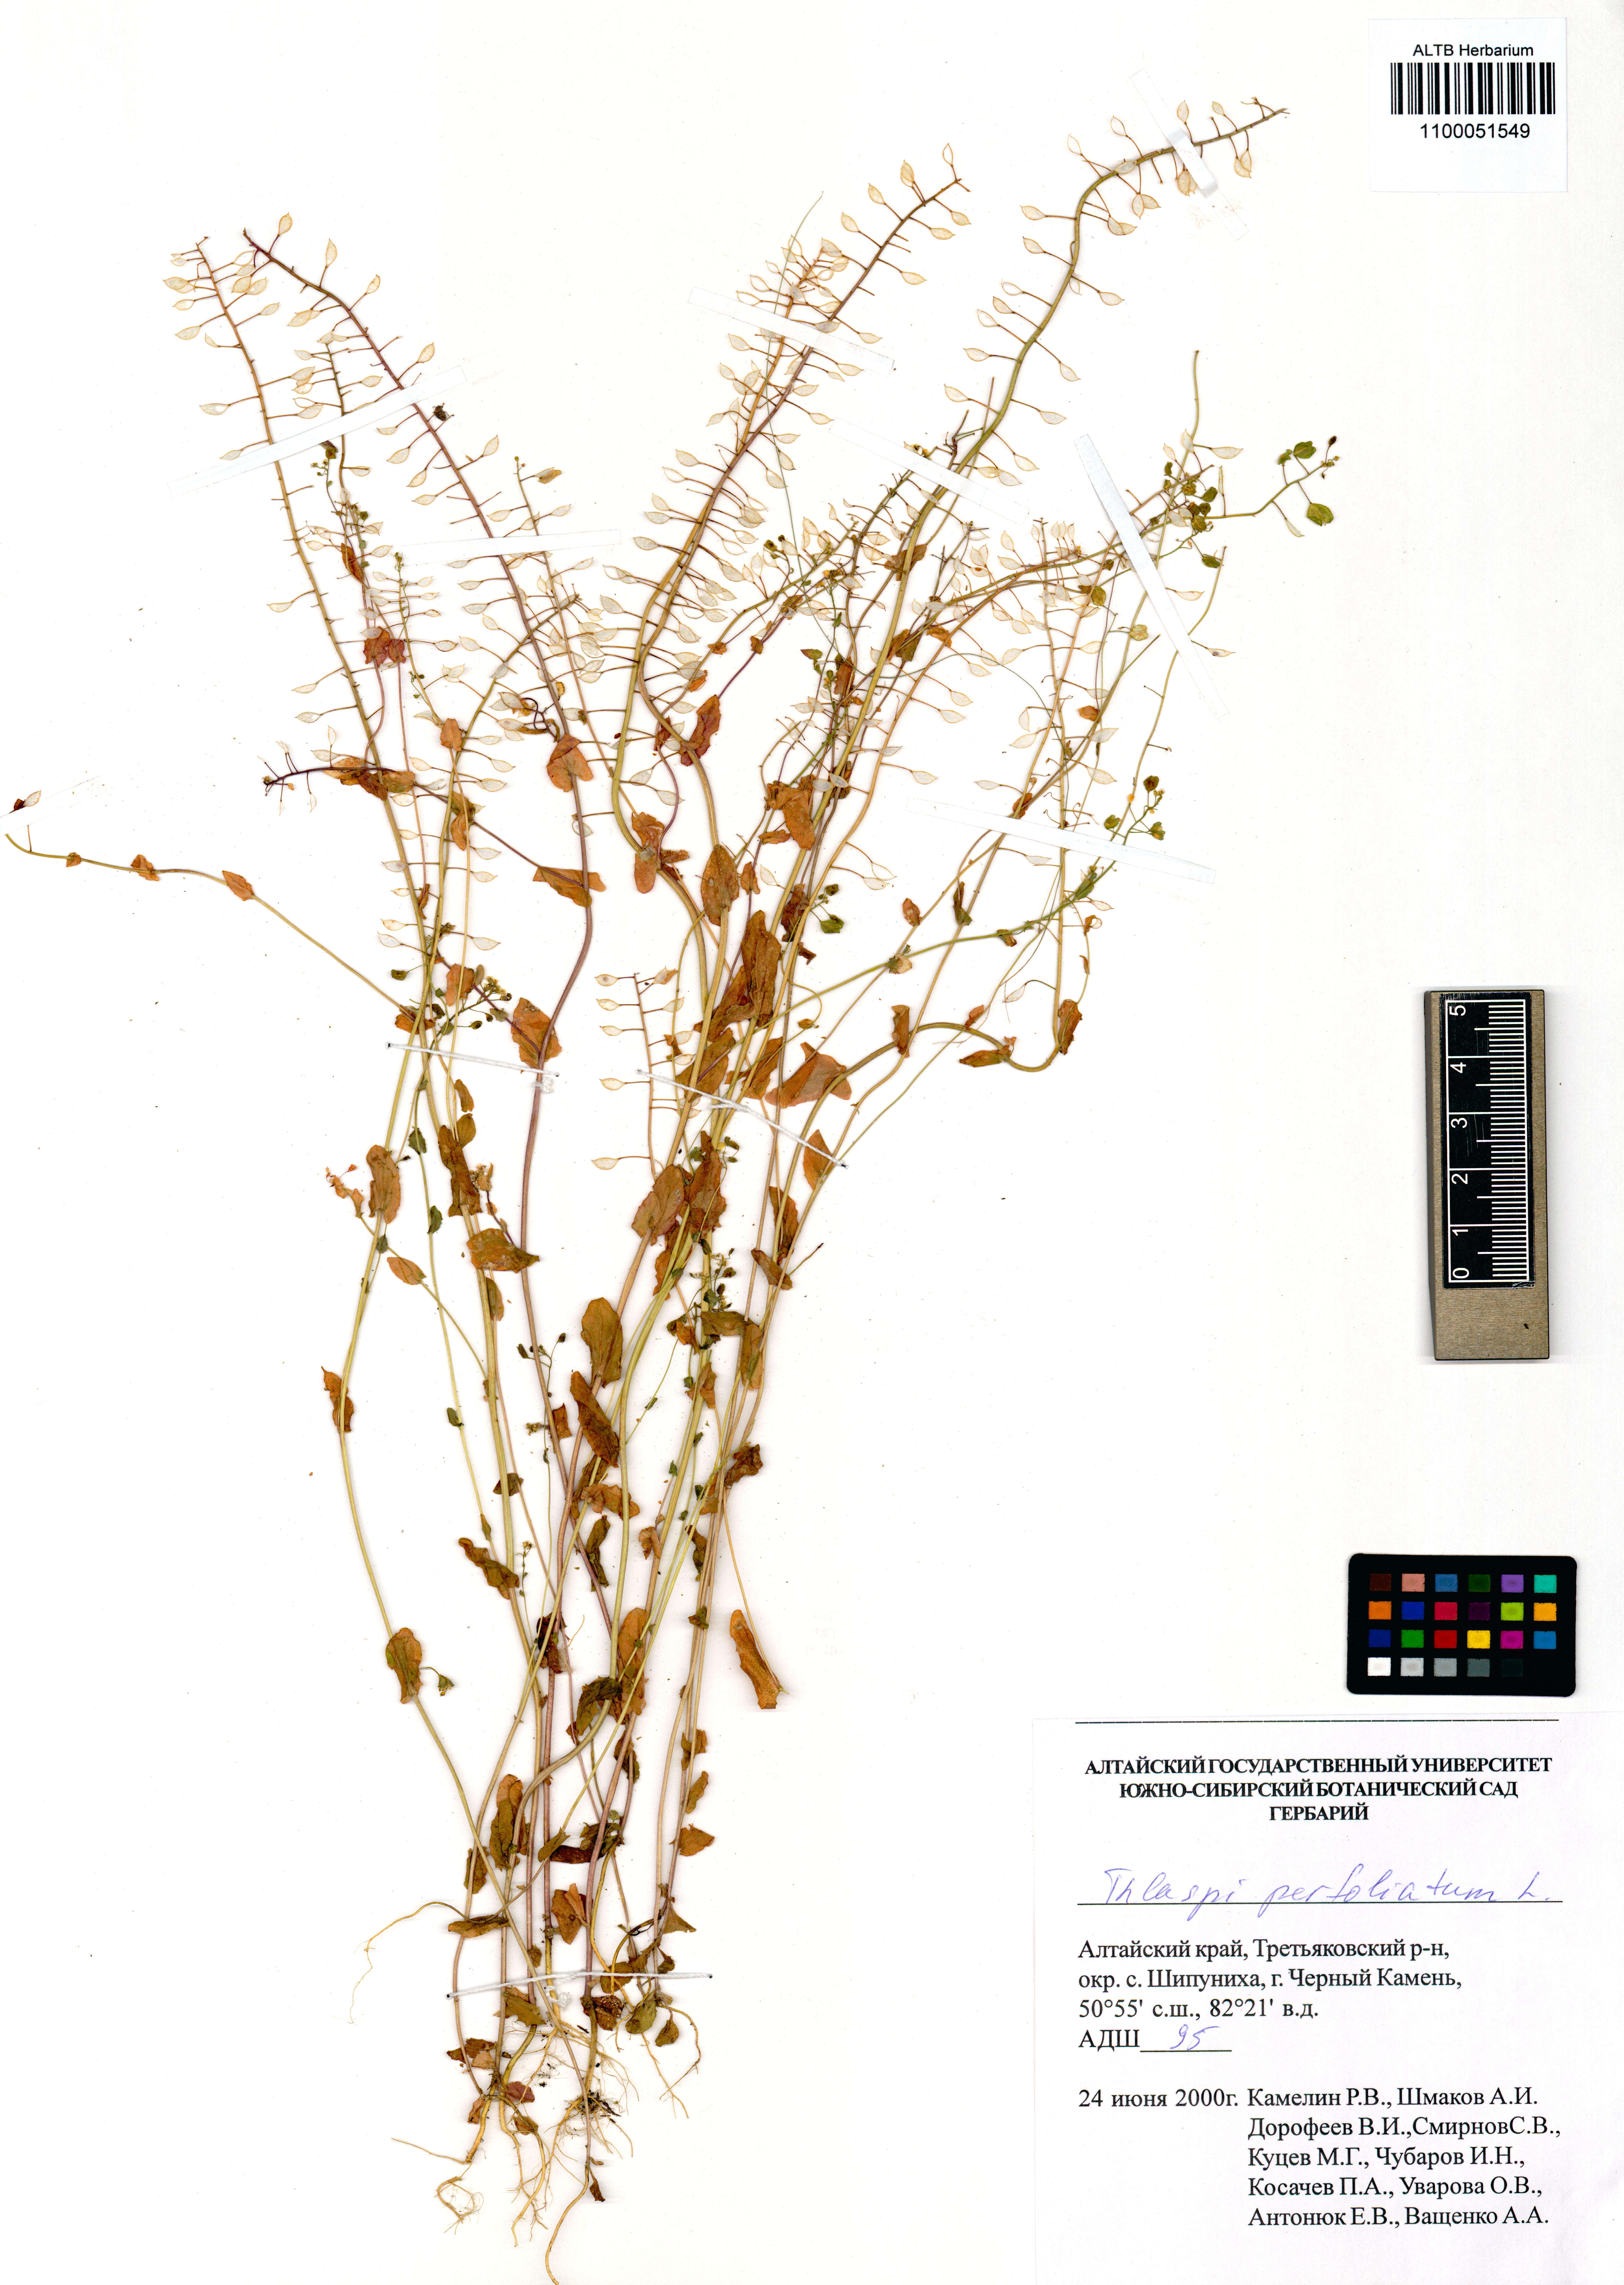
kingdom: Plantae
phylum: Tracheophyta
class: Magnoliopsida
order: Brassicales
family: Brassicaceae
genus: Noccaea
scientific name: Noccaea perfoliata
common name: Perfoliate pennycress
